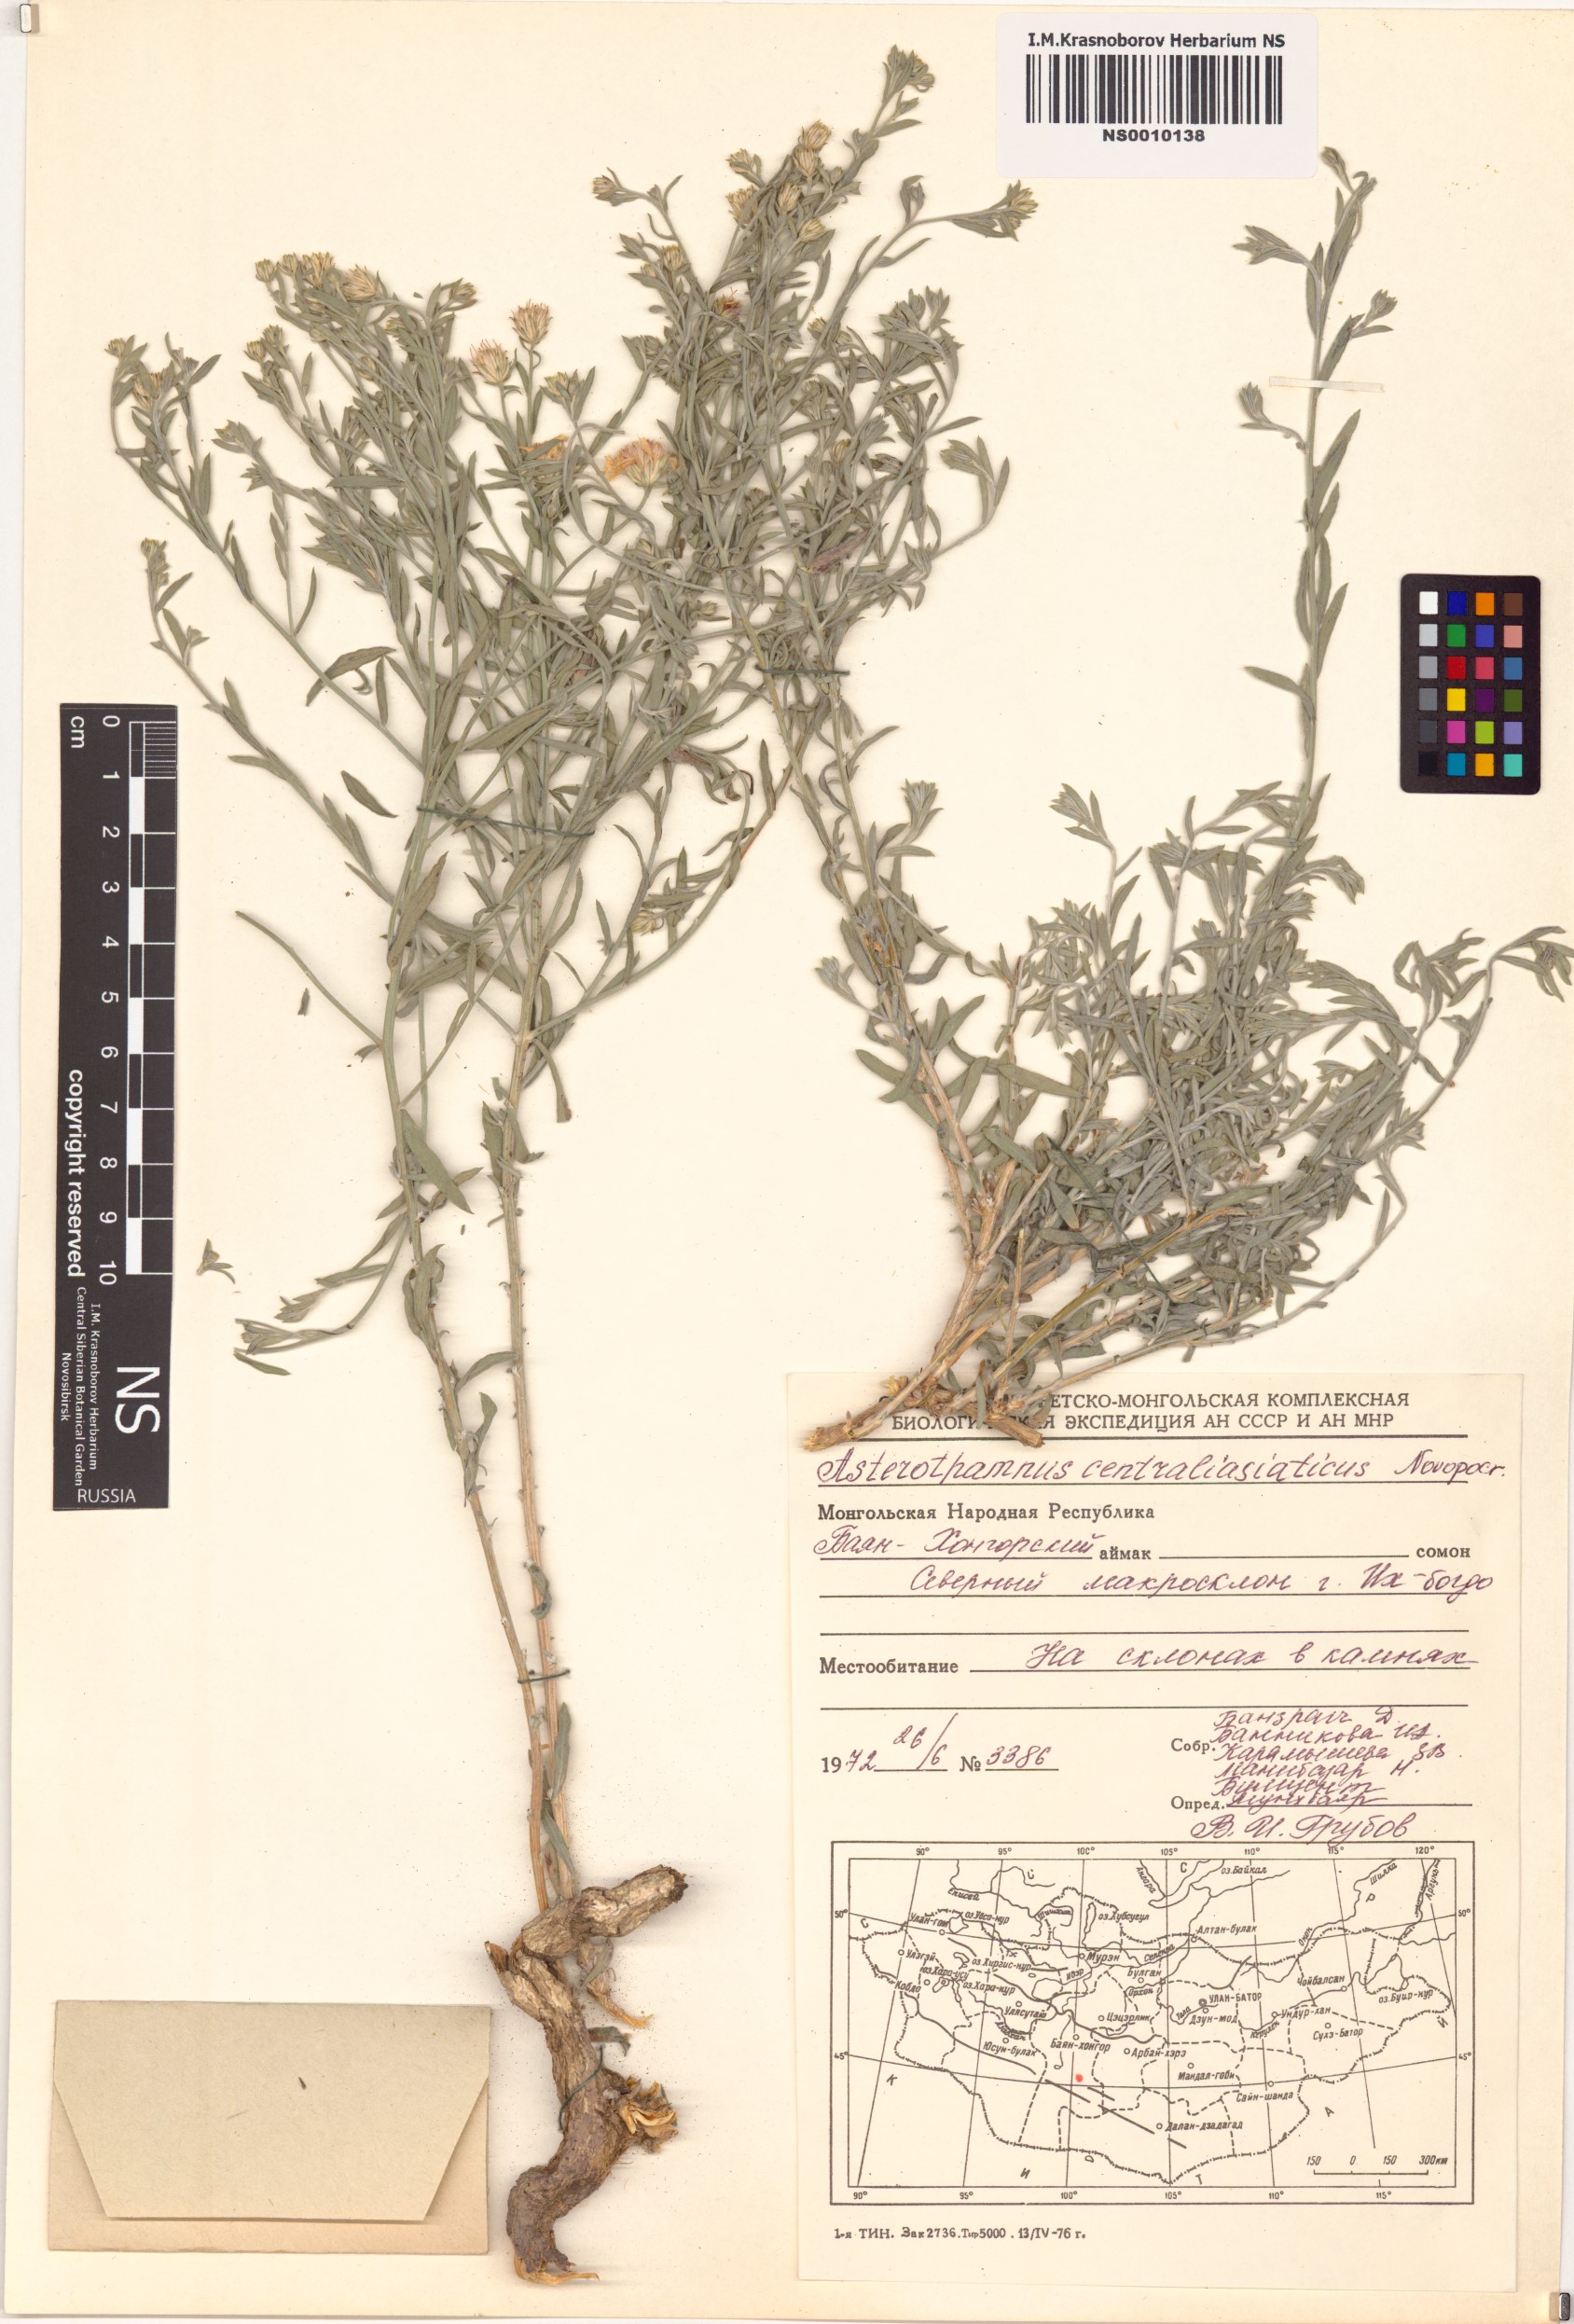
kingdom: Plantae
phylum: Tracheophyta
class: Magnoliopsida
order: Asterales
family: Asteraceae
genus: Asterothamnus
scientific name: Asterothamnus centraliasiaticus
